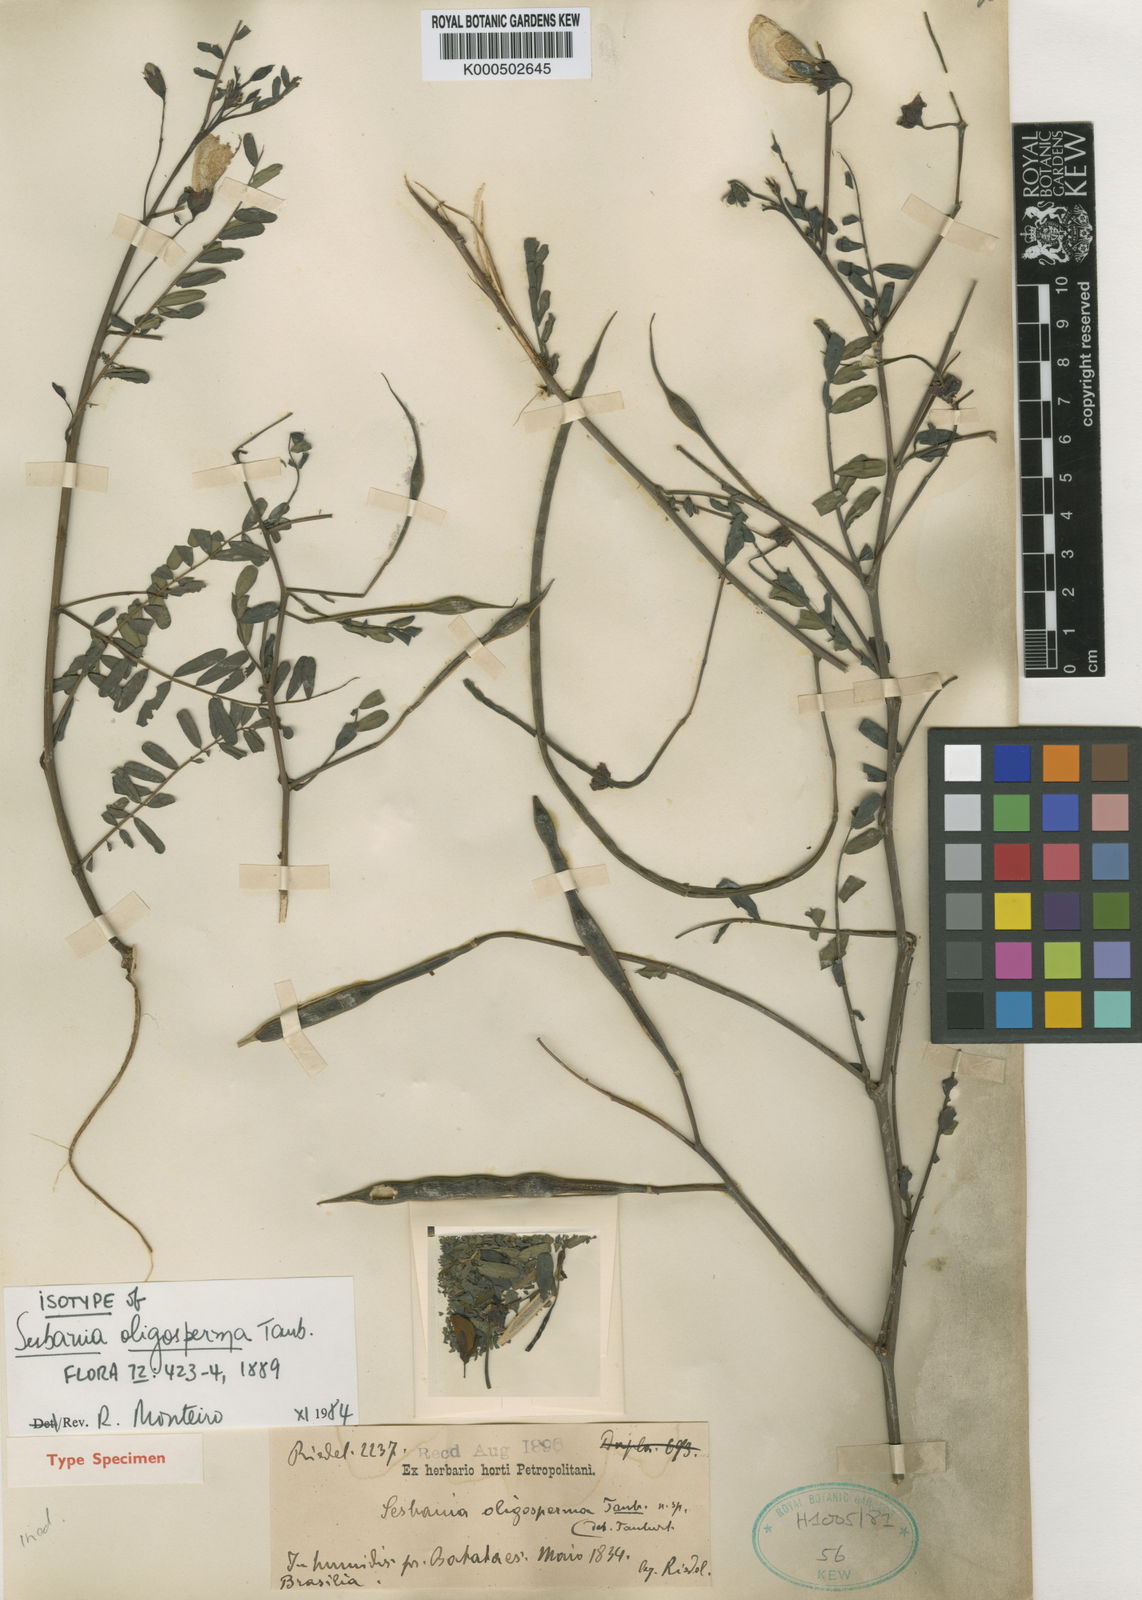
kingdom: Plantae
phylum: Tracheophyta
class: Magnoliopsida
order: Fabales
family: Fabaceae
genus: Sesbania
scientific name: Sesbania oligosperma
